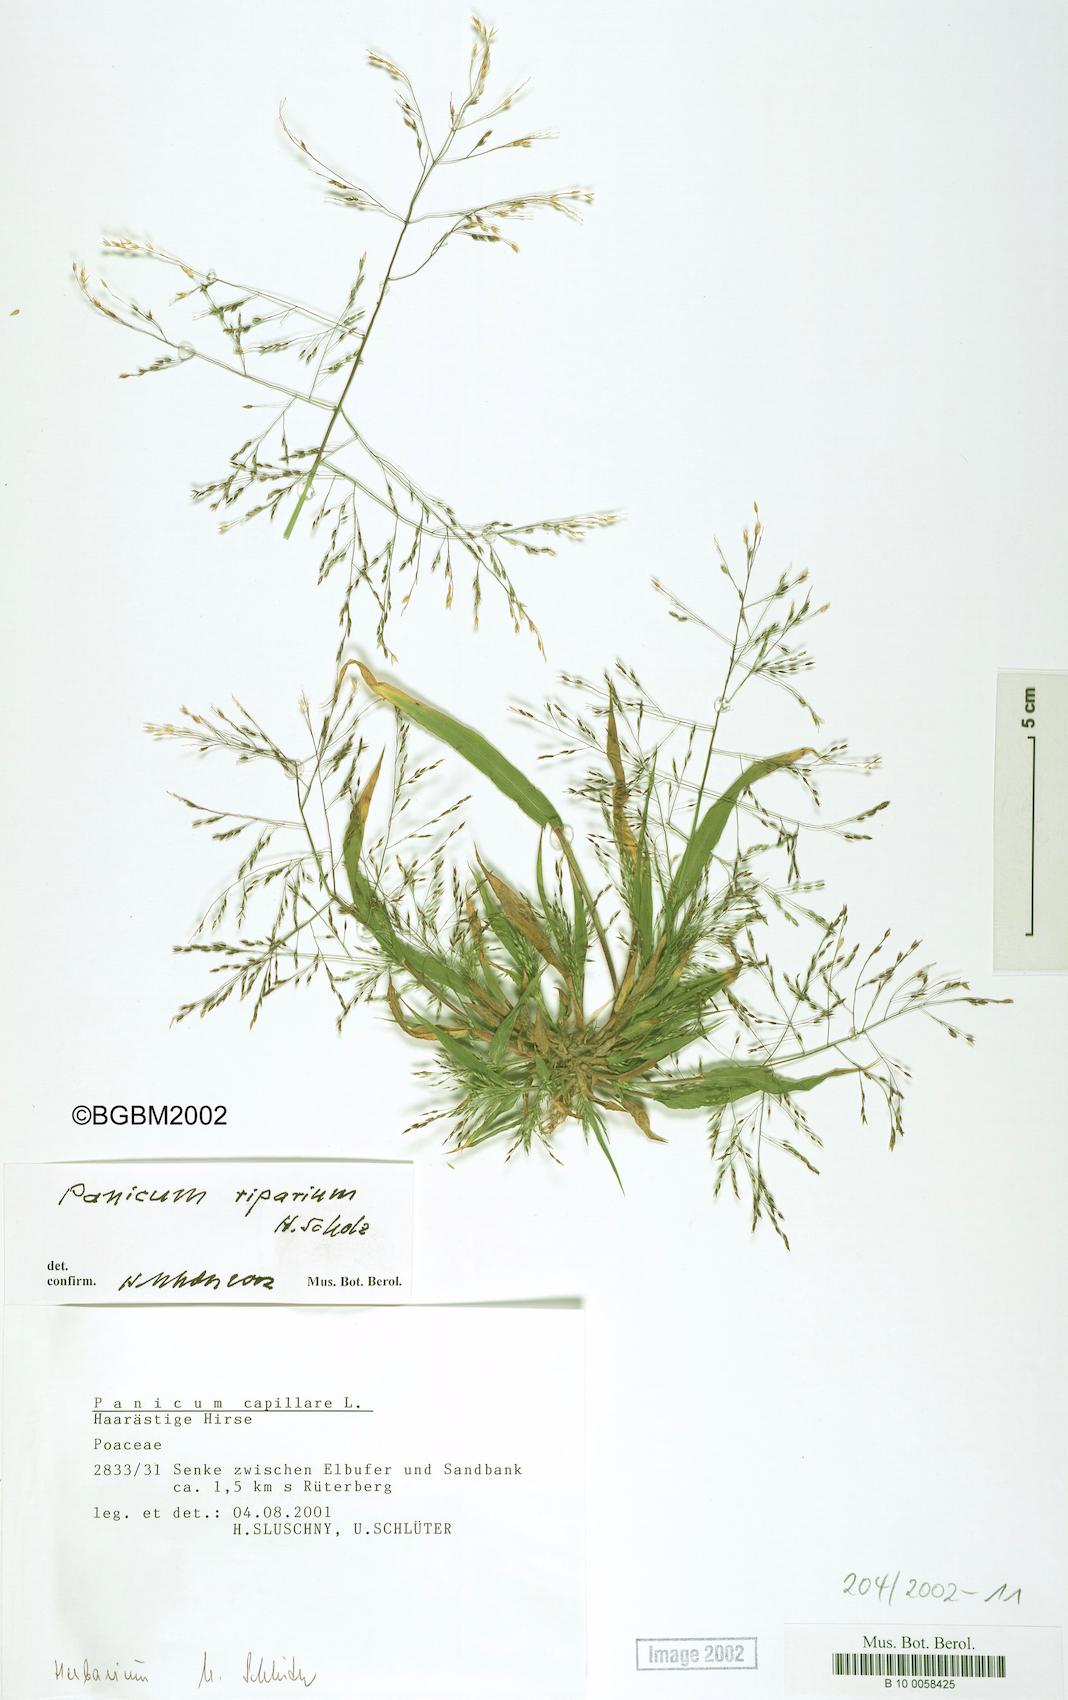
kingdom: Plantae
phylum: Tracheophyta
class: Liliopsida
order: Poales
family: Poaceae
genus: Panicum
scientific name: Panicum capillare
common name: Witch-grass
